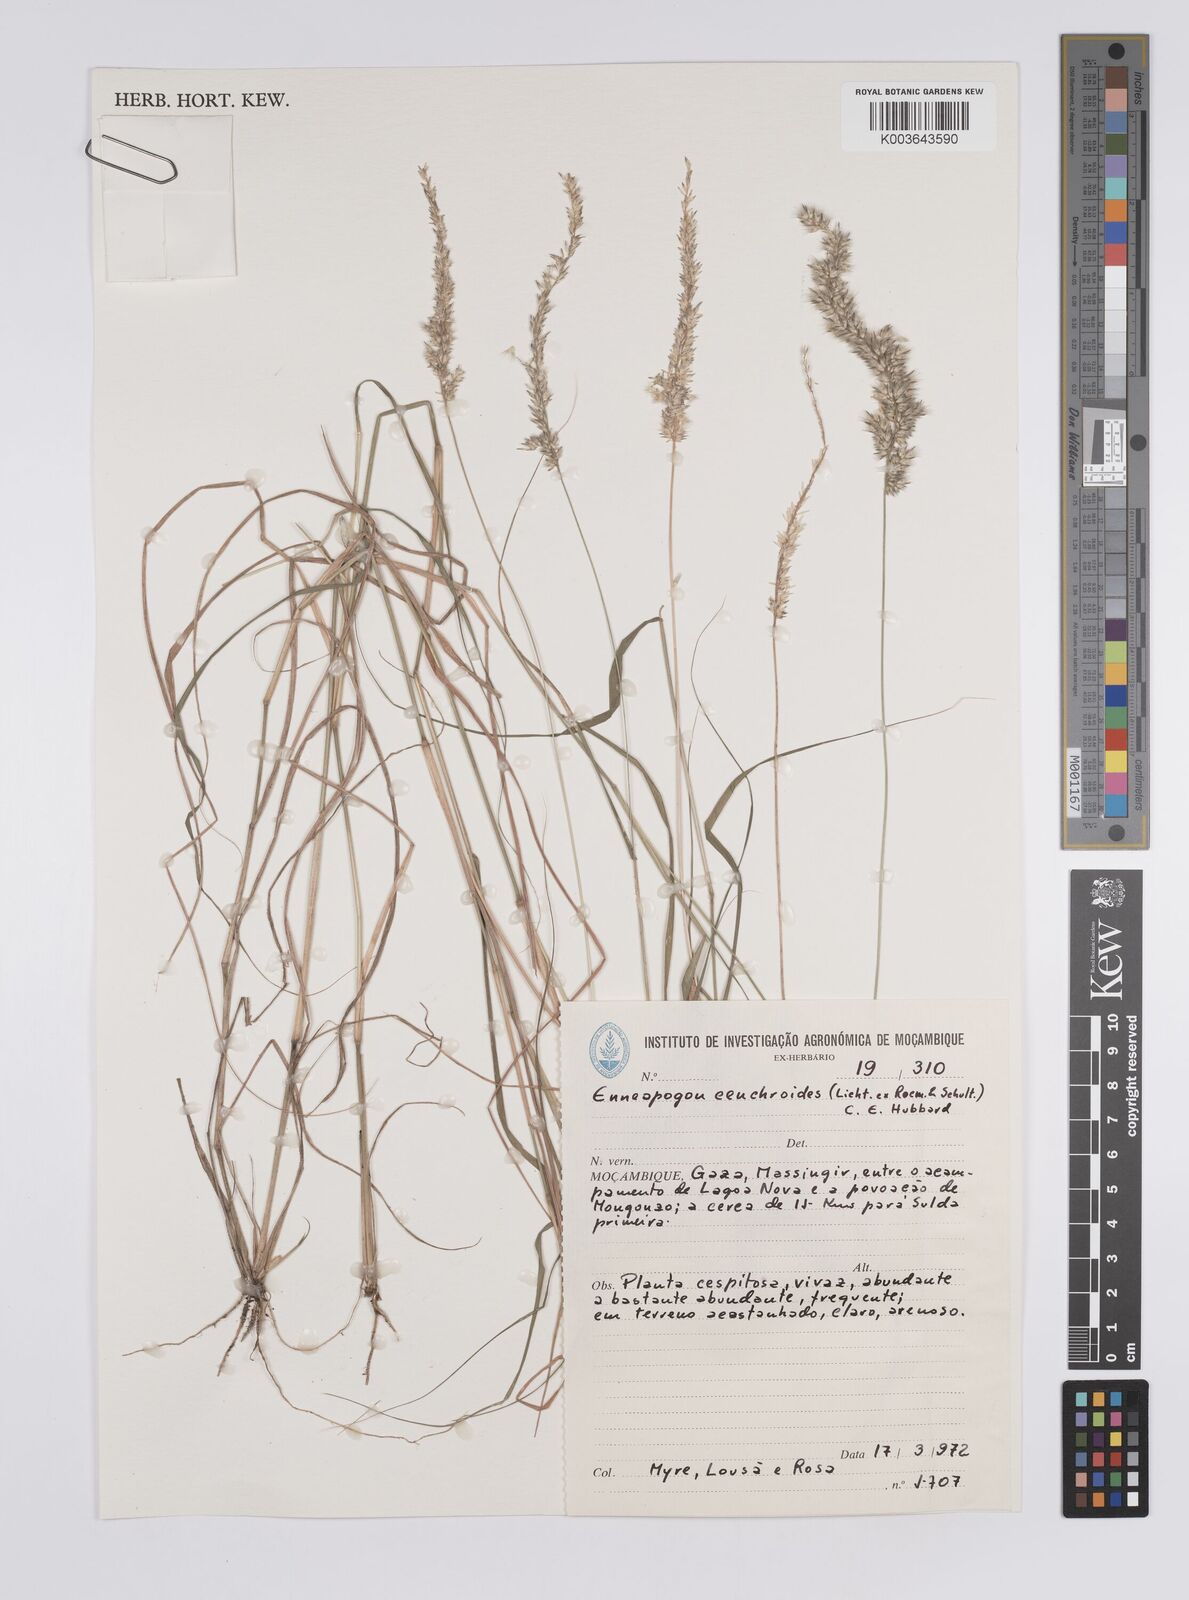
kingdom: Plantae
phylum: Tracheophyta
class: Liliopsida
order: Poales
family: Poaceae
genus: Enneapogon
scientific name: Enneapogon cenchroides
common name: Soft feather pappusgrass
